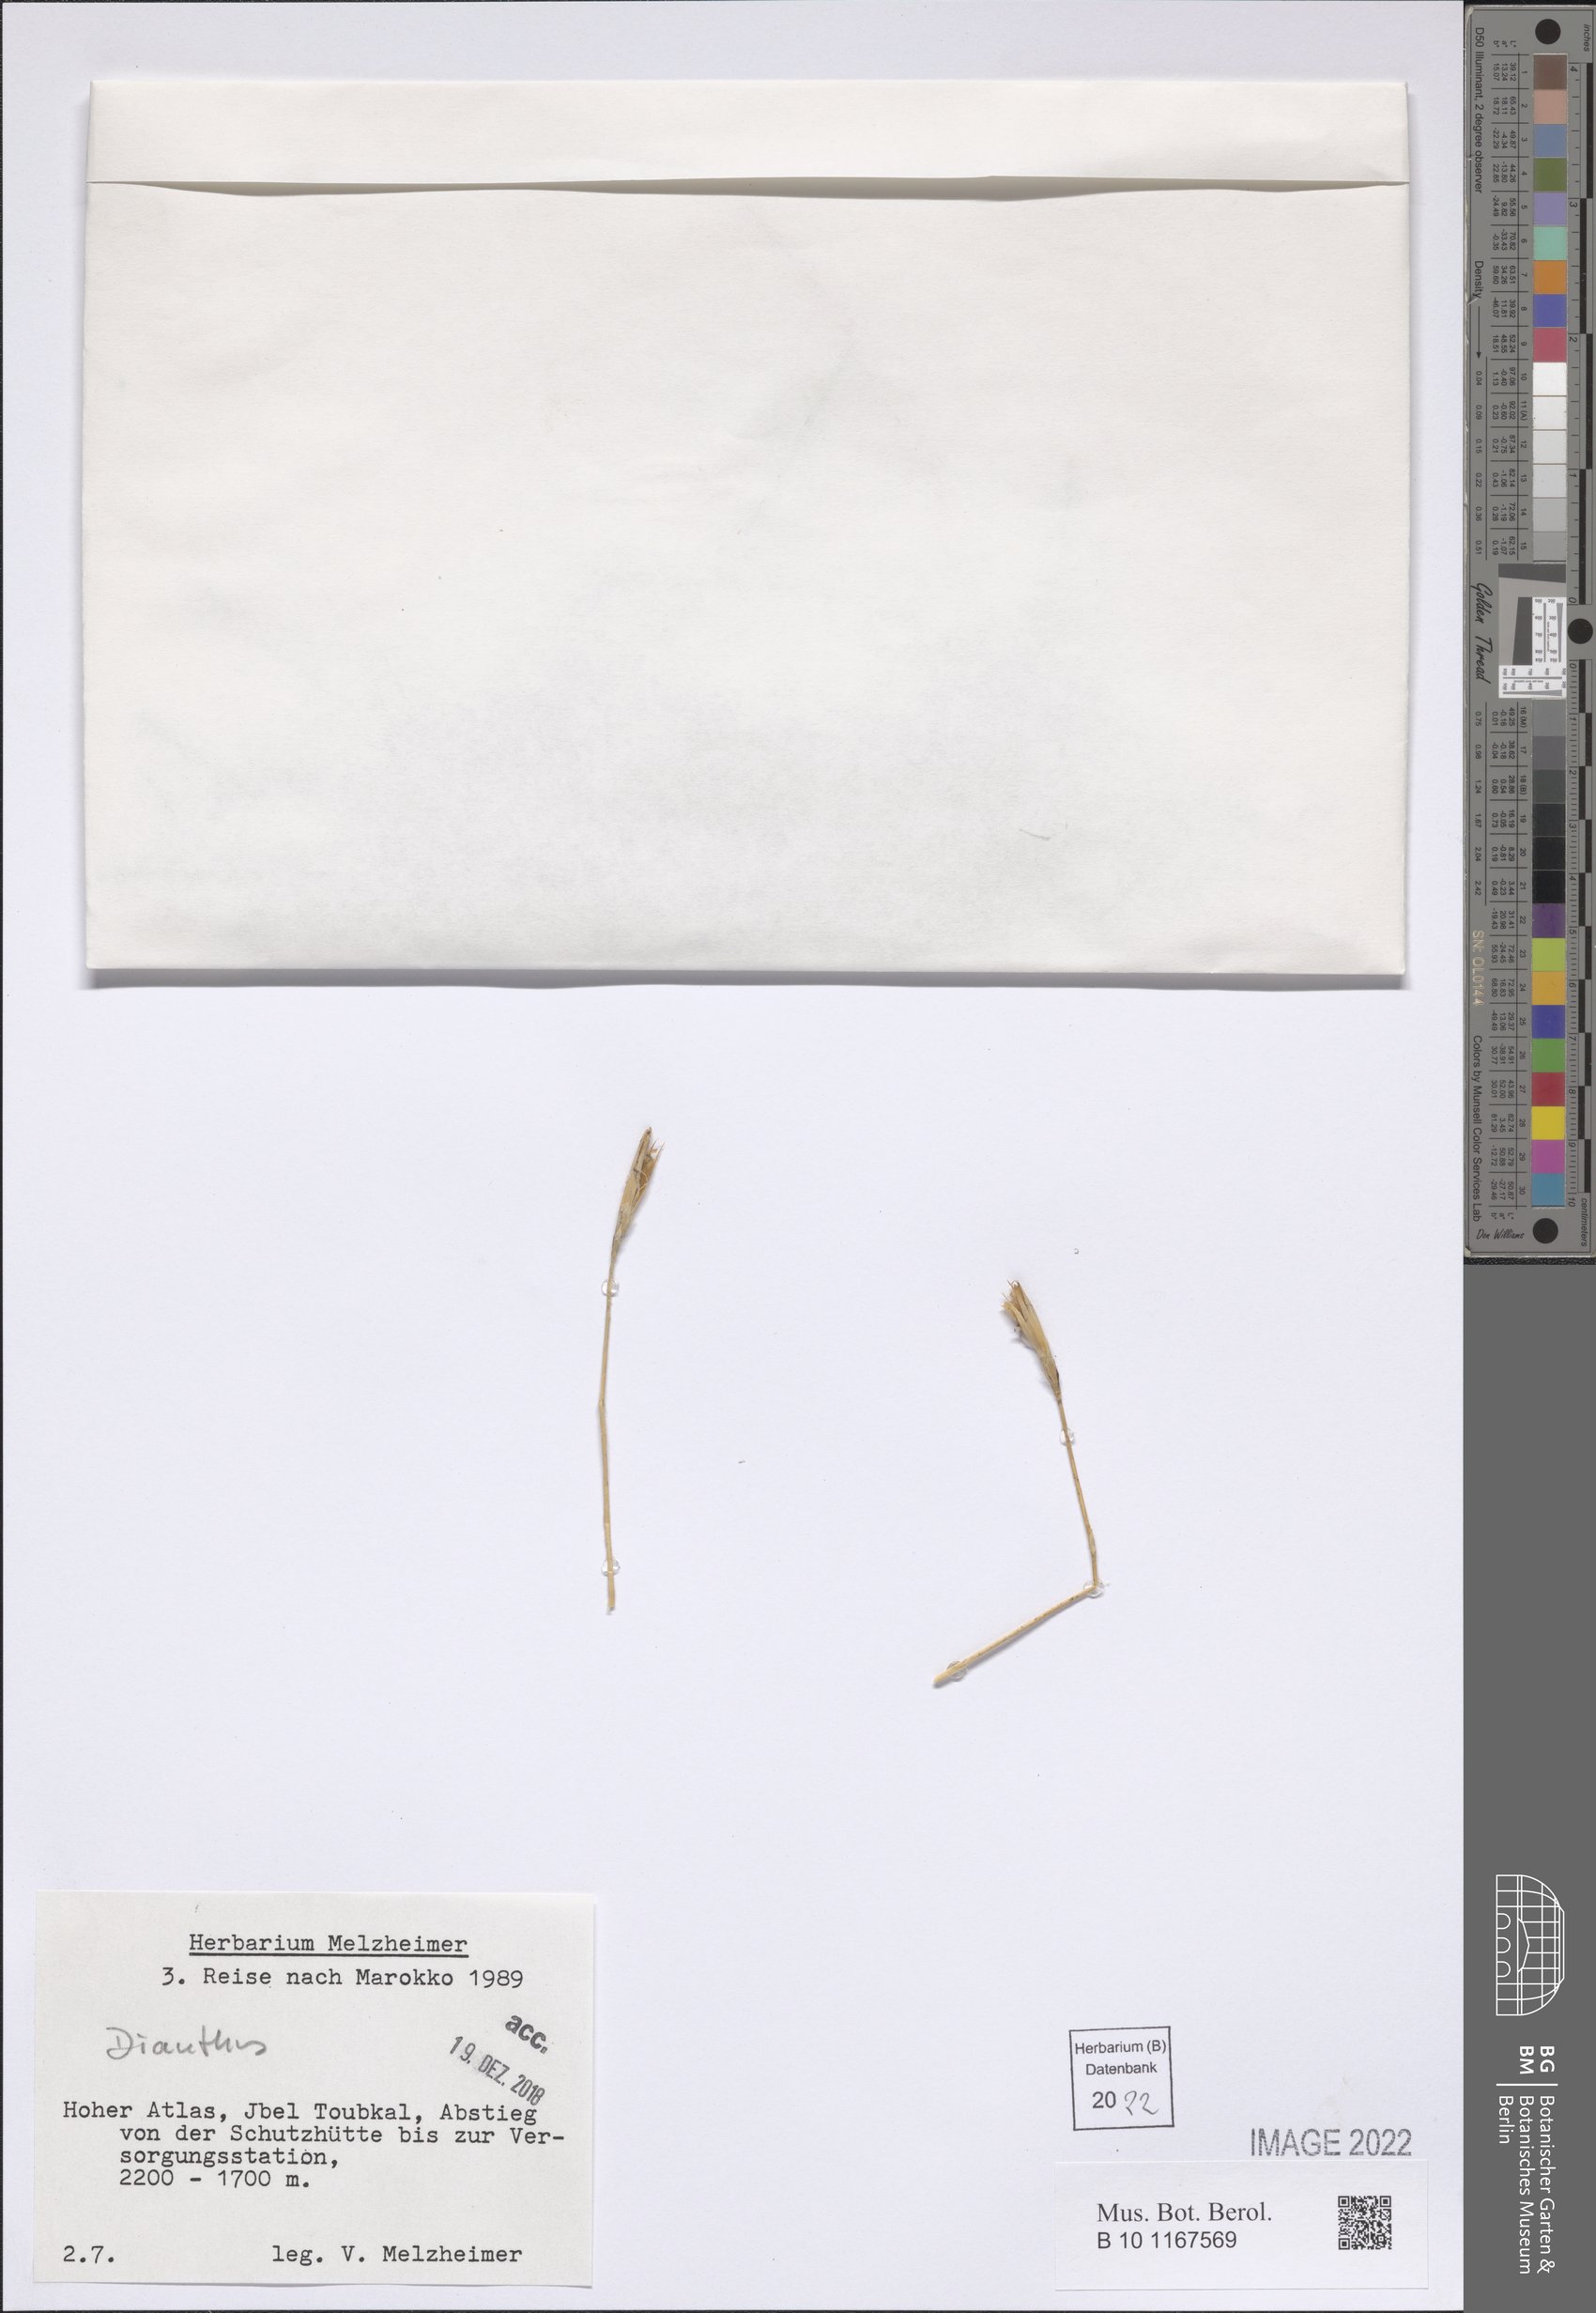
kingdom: Plantae
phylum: Tracheophyta
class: Magnoliopsida
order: Caryophyllales
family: Caryophyllaceae
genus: Dianthus
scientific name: Dianthus
